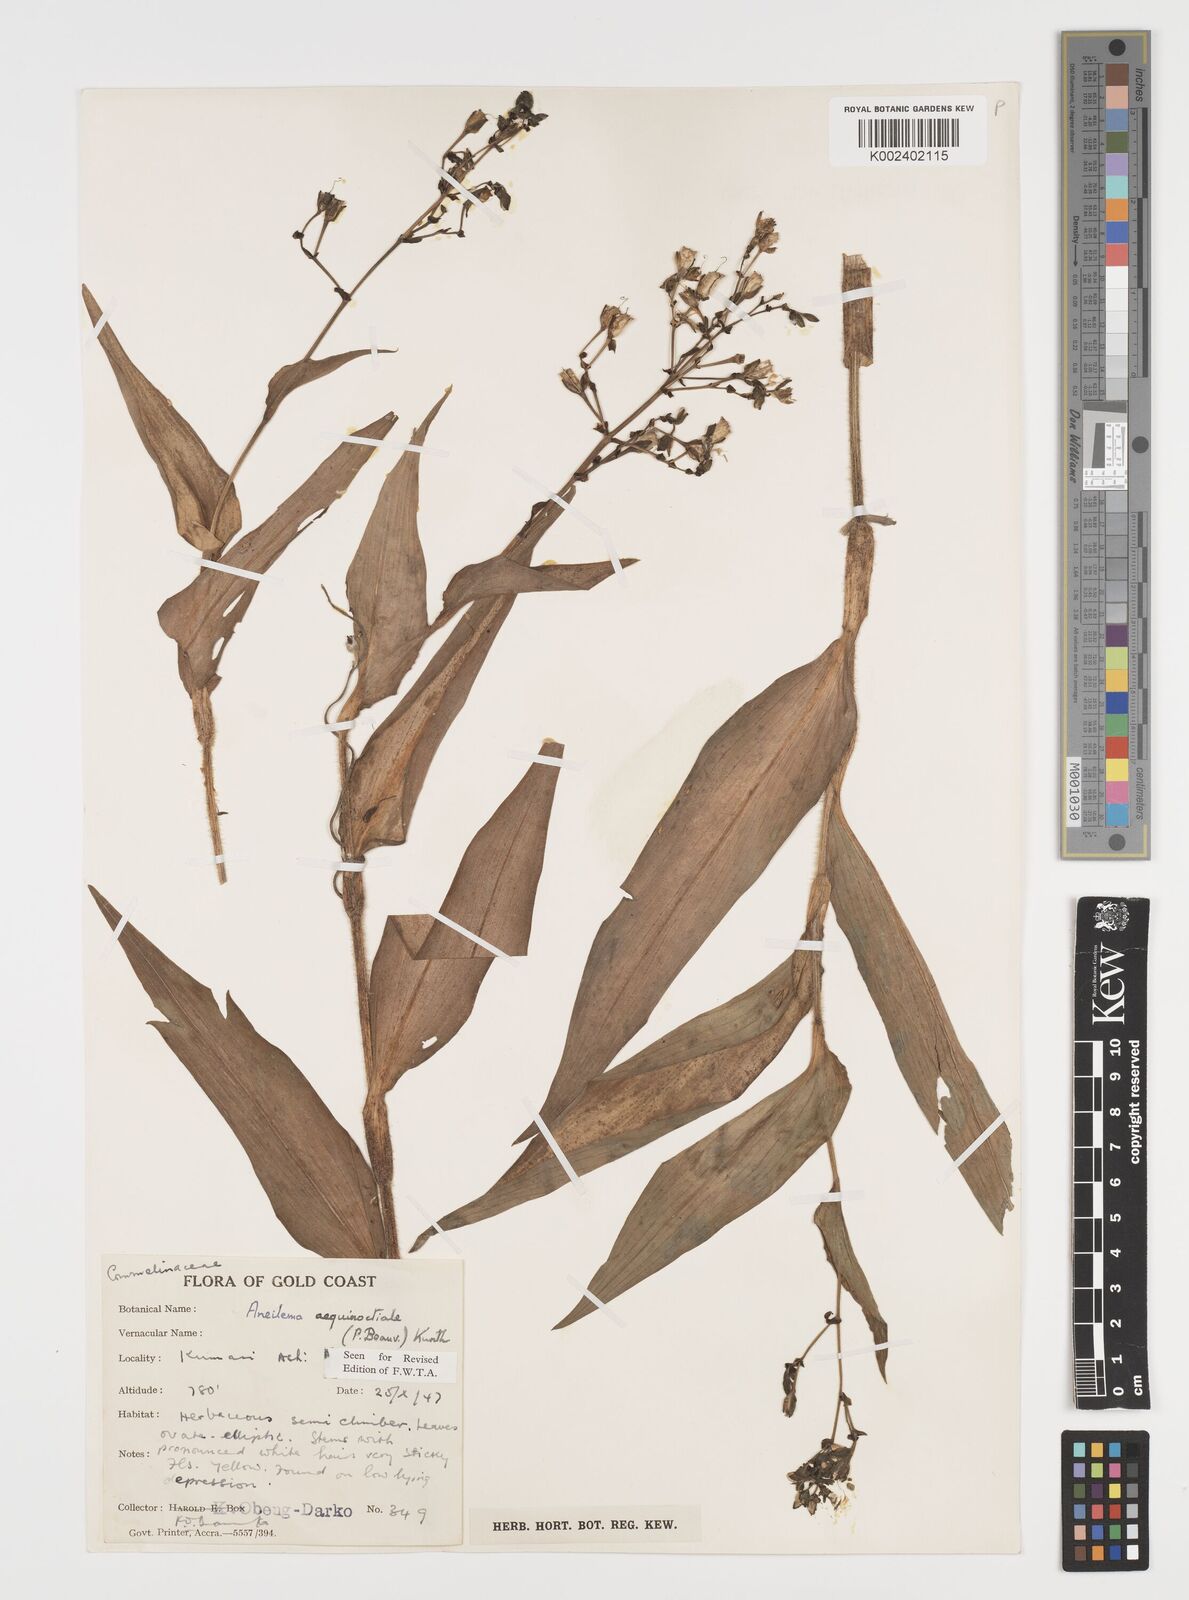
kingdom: Plantae
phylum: Tracheophyta
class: Liliopsida
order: Commelinales
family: Commelinaceae
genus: Aneilema
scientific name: Aneilema aequinoctiale
